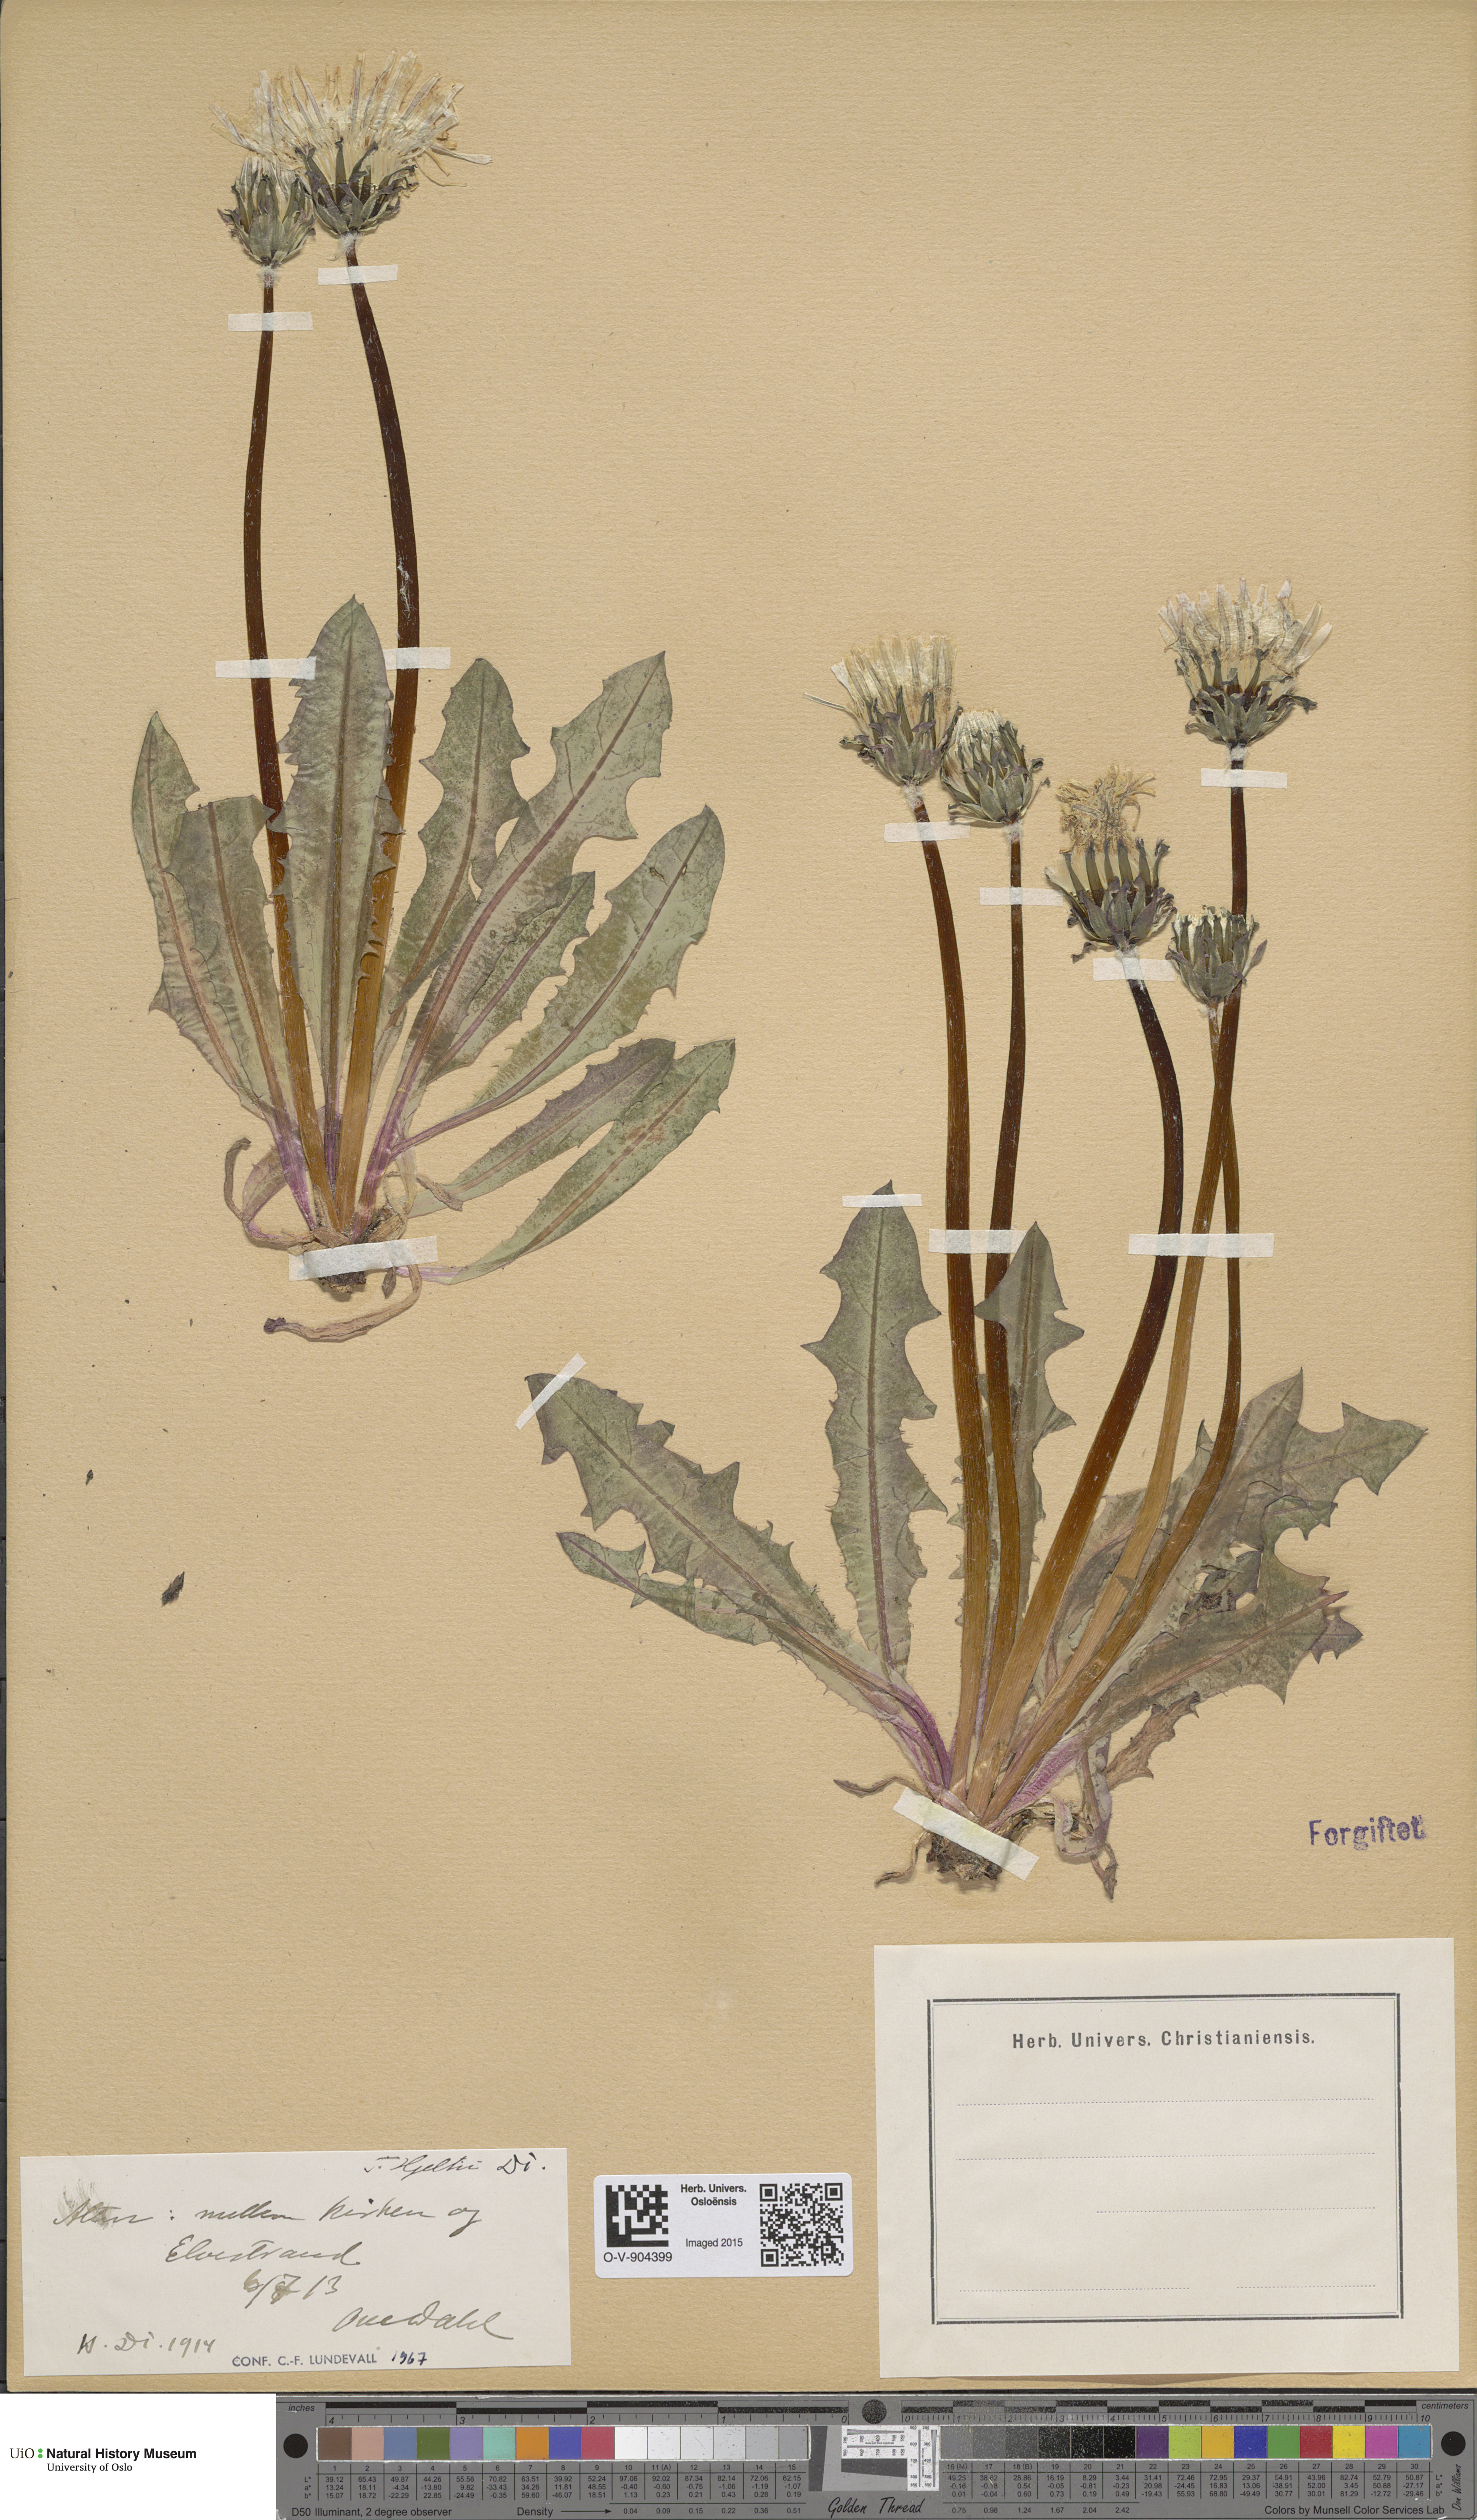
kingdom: Plantae
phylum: Tracheophyta
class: Magnoliopsida
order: Asterales
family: Asteraceae
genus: Taraxacum
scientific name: Taraxacum hjeltii
